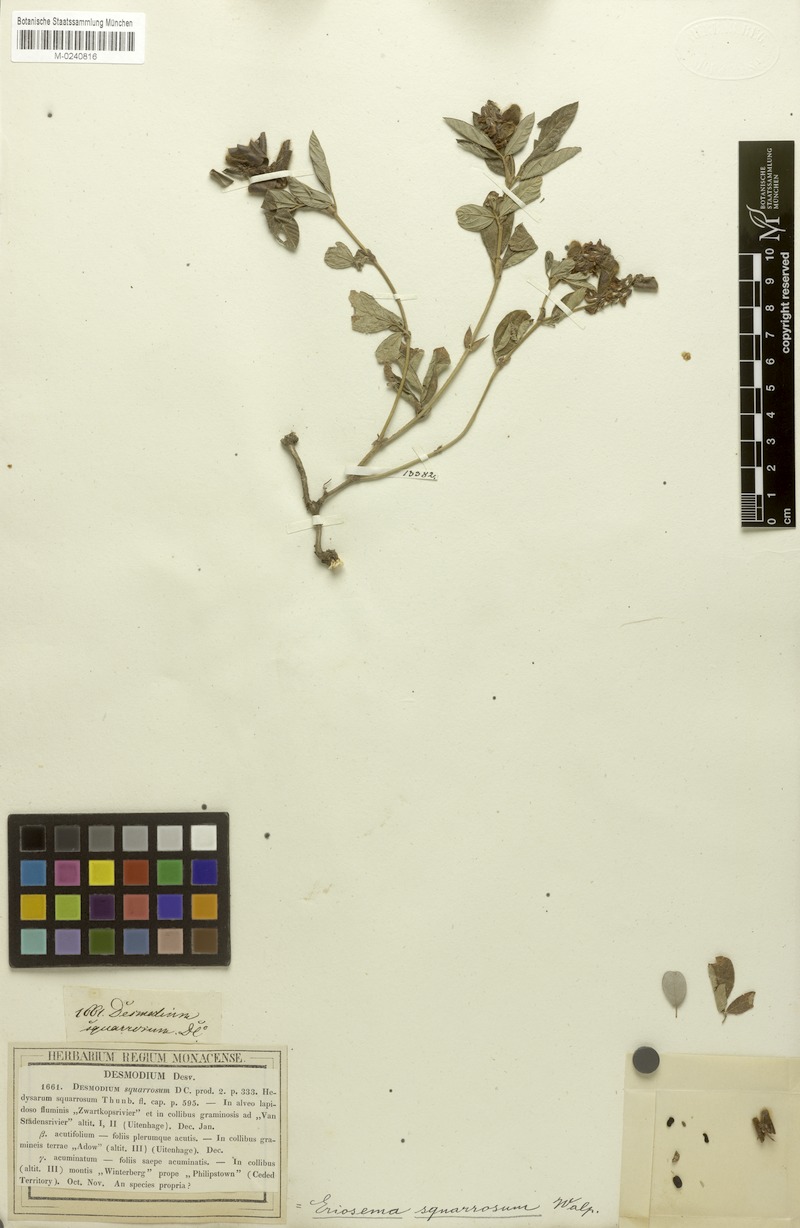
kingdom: Plantae
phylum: Tracheophyta
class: Magnoliopsida
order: Fabales
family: Fabaceae
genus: Eriosema
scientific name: Eriosema squarrosum
